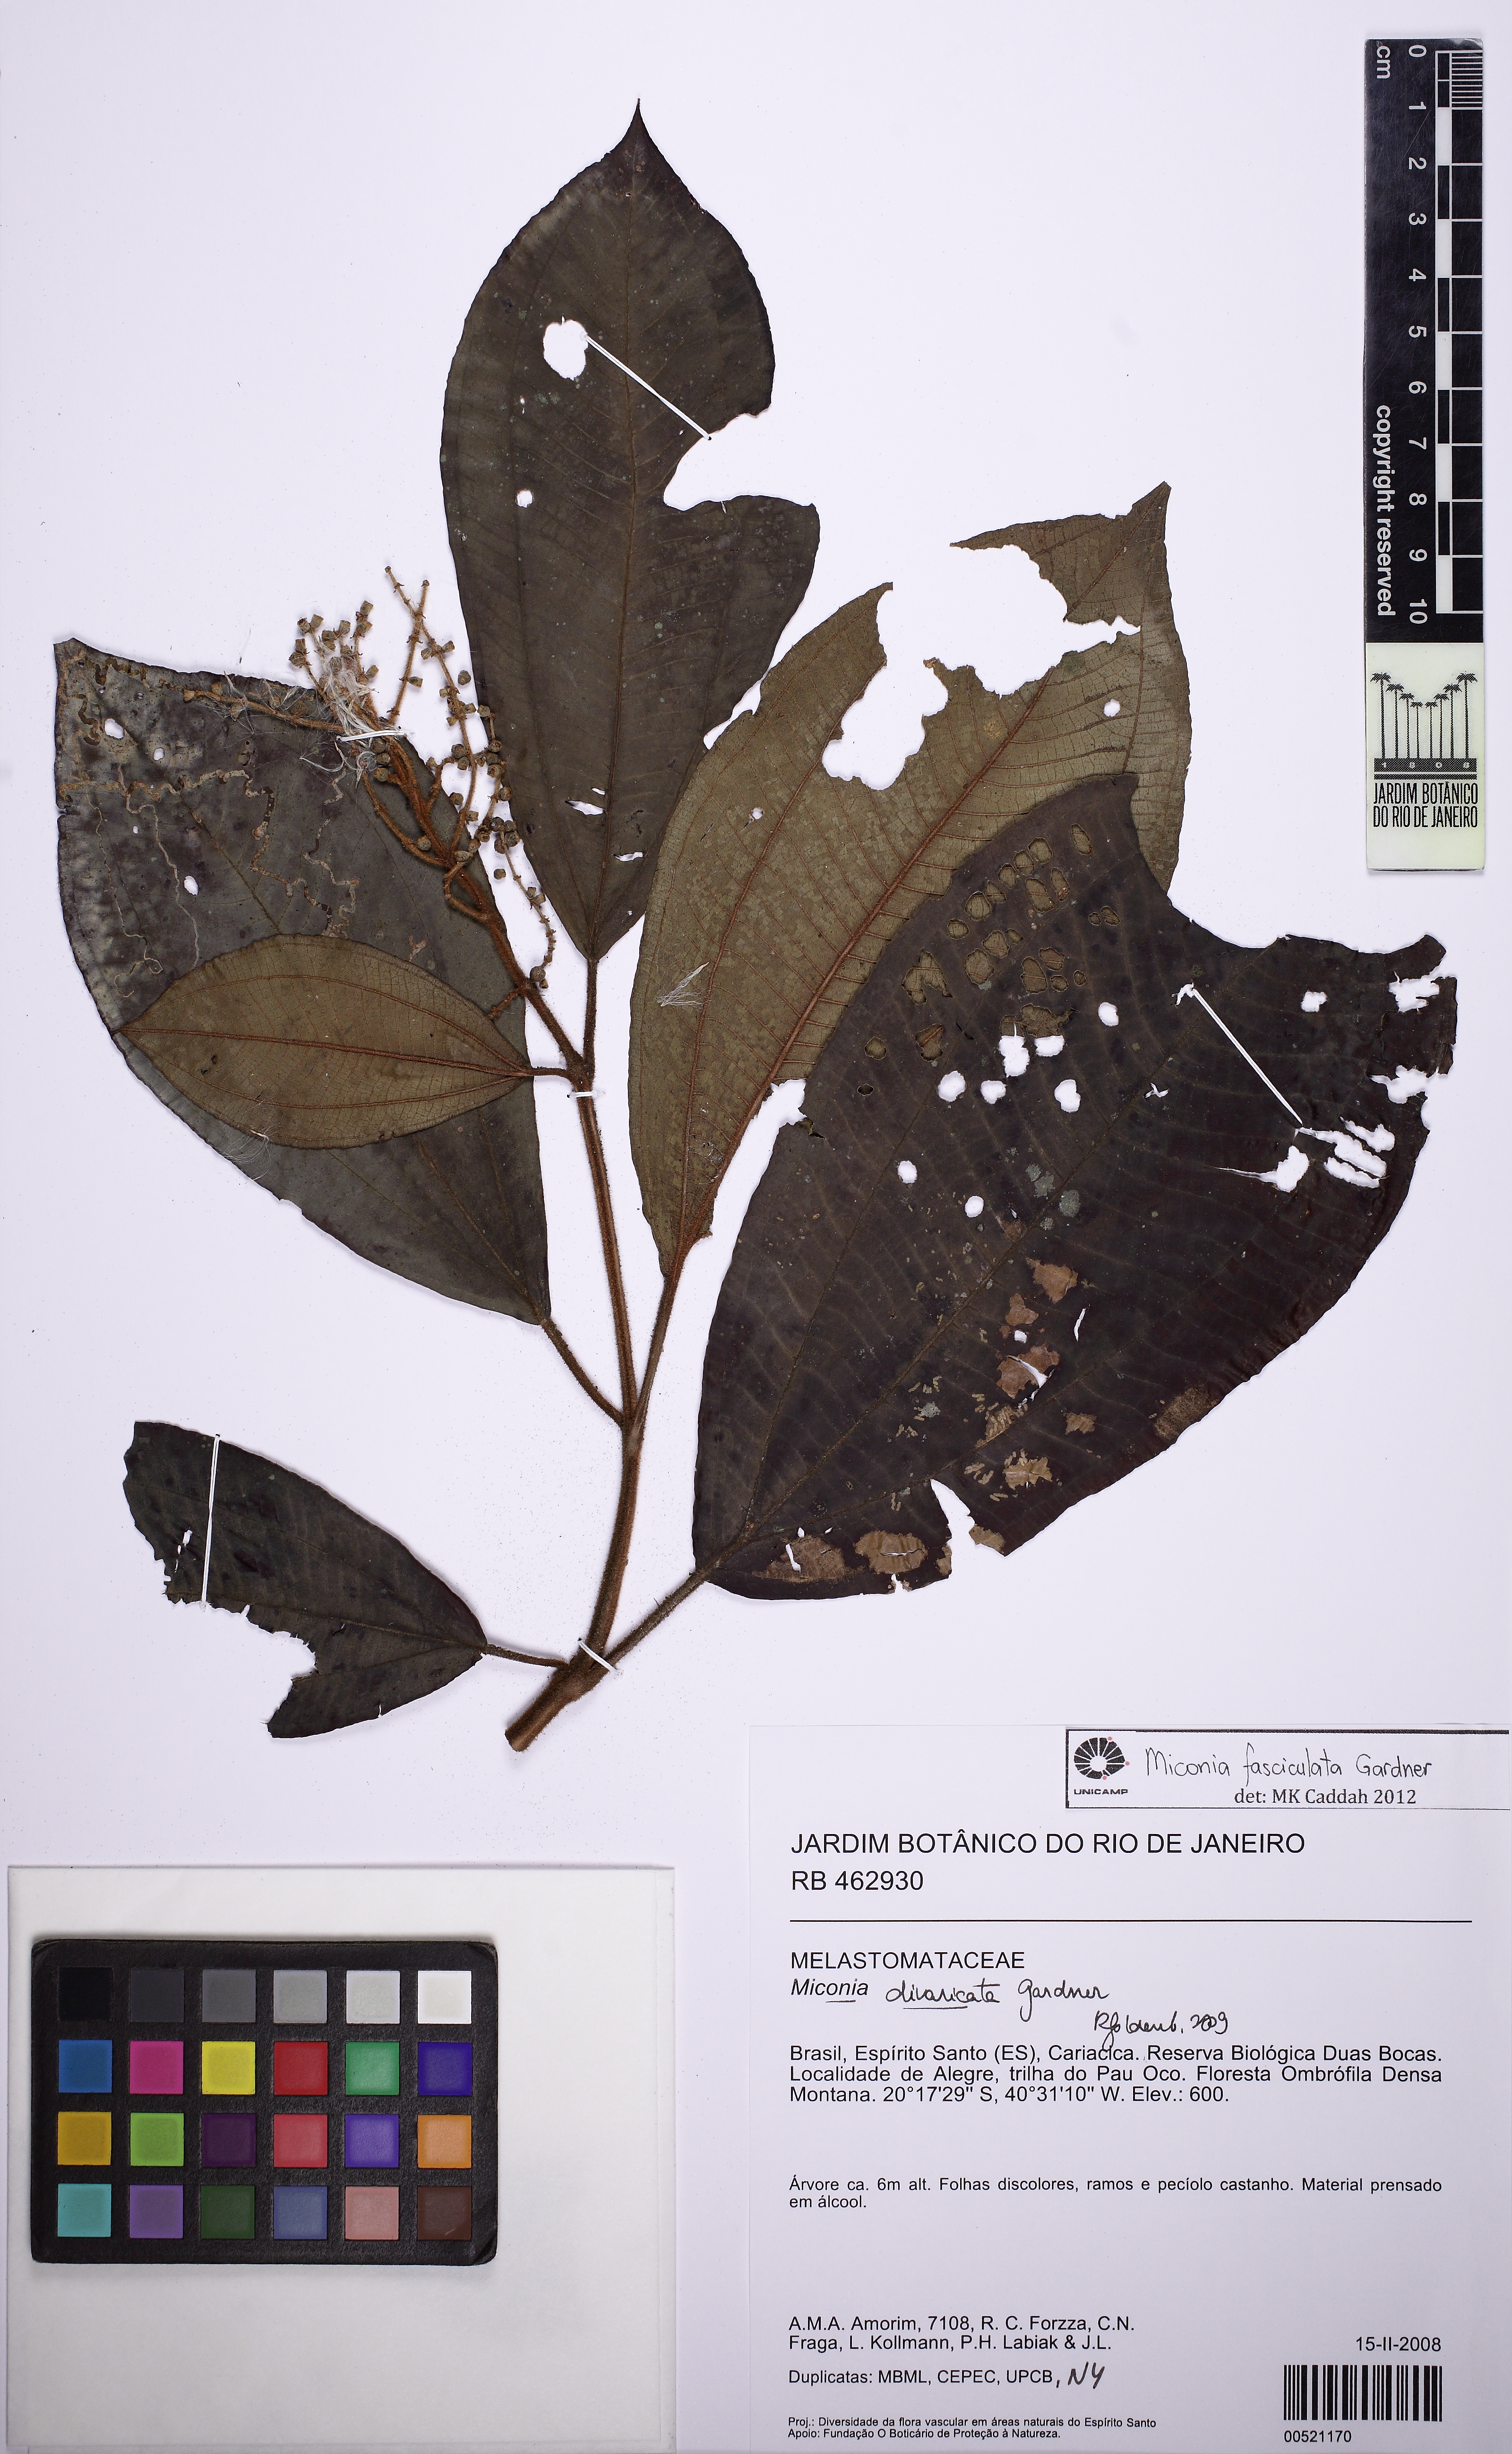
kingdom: Plantae
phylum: Tracheophyta
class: Magnoliopsida
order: Myrtales
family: Melastomataceae
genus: Miconia
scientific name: Miconia fasciculata
